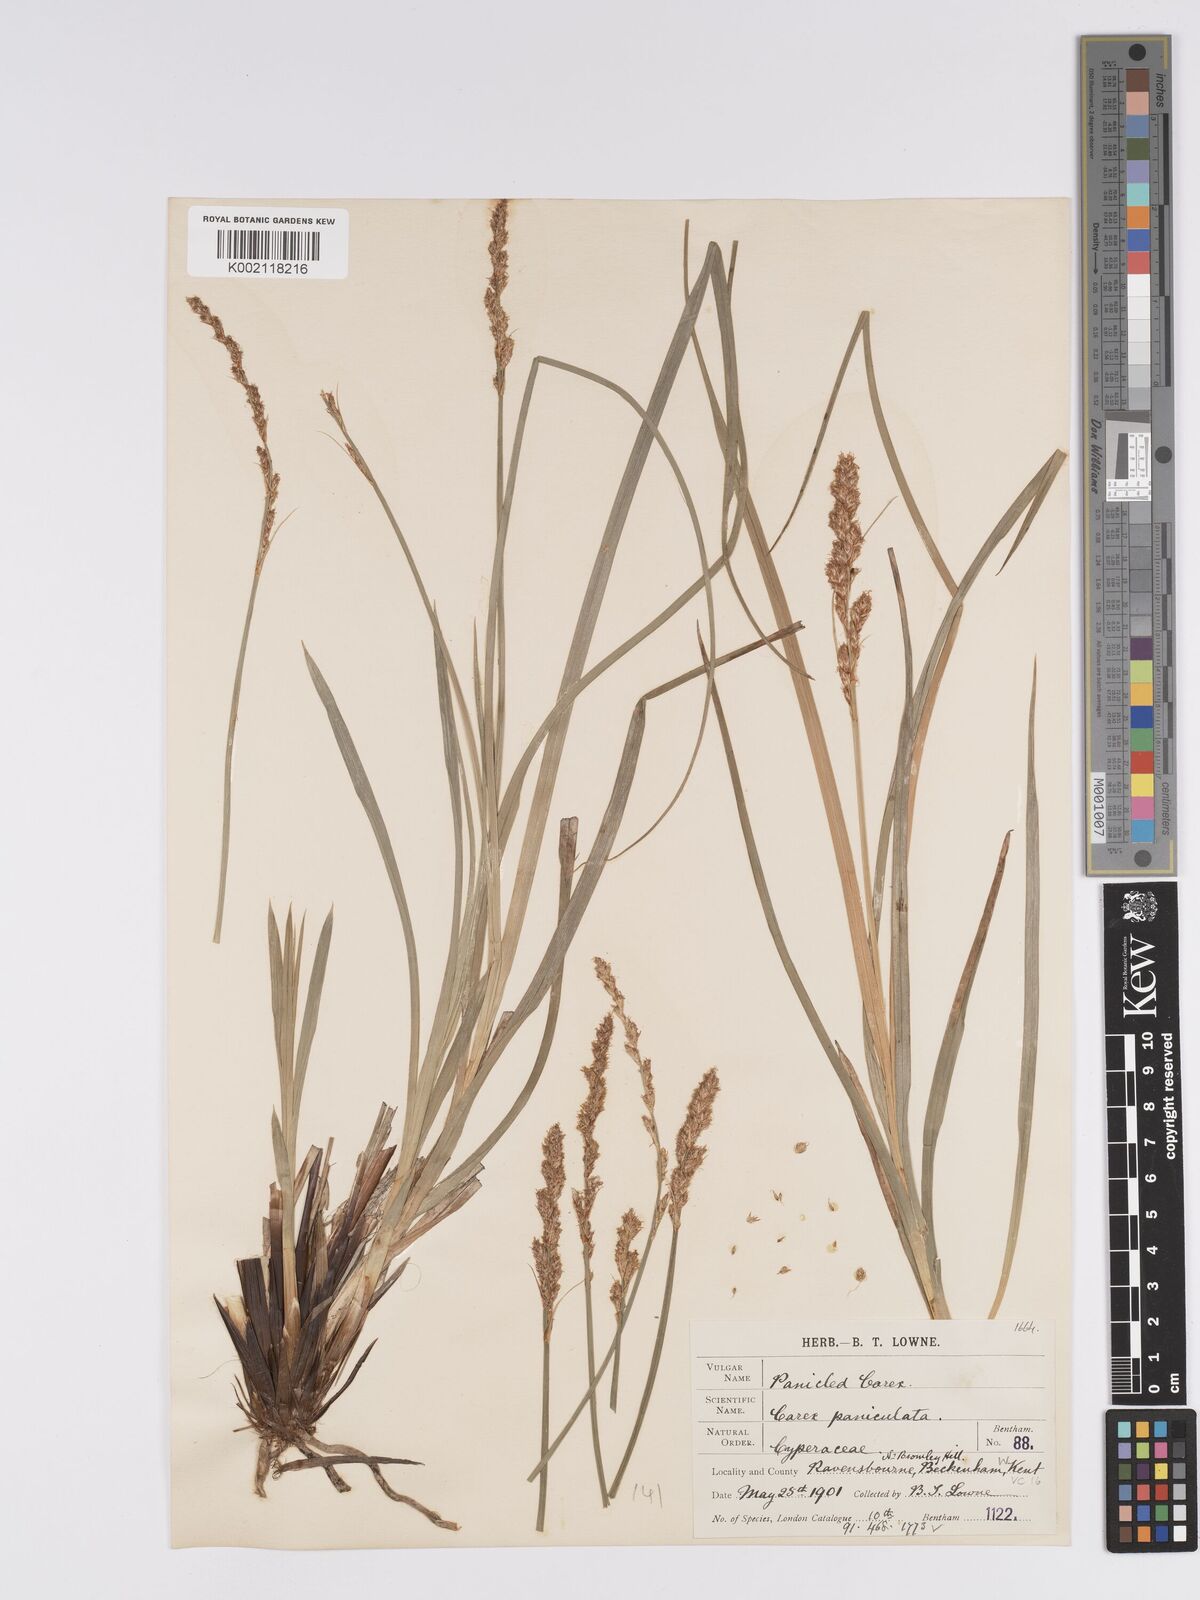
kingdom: Plantae
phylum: Tracheophyta
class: Liliopsida
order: Poales
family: Cyperaceae
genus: Carex
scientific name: Carex paniculata
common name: Greater tussock-sedge
